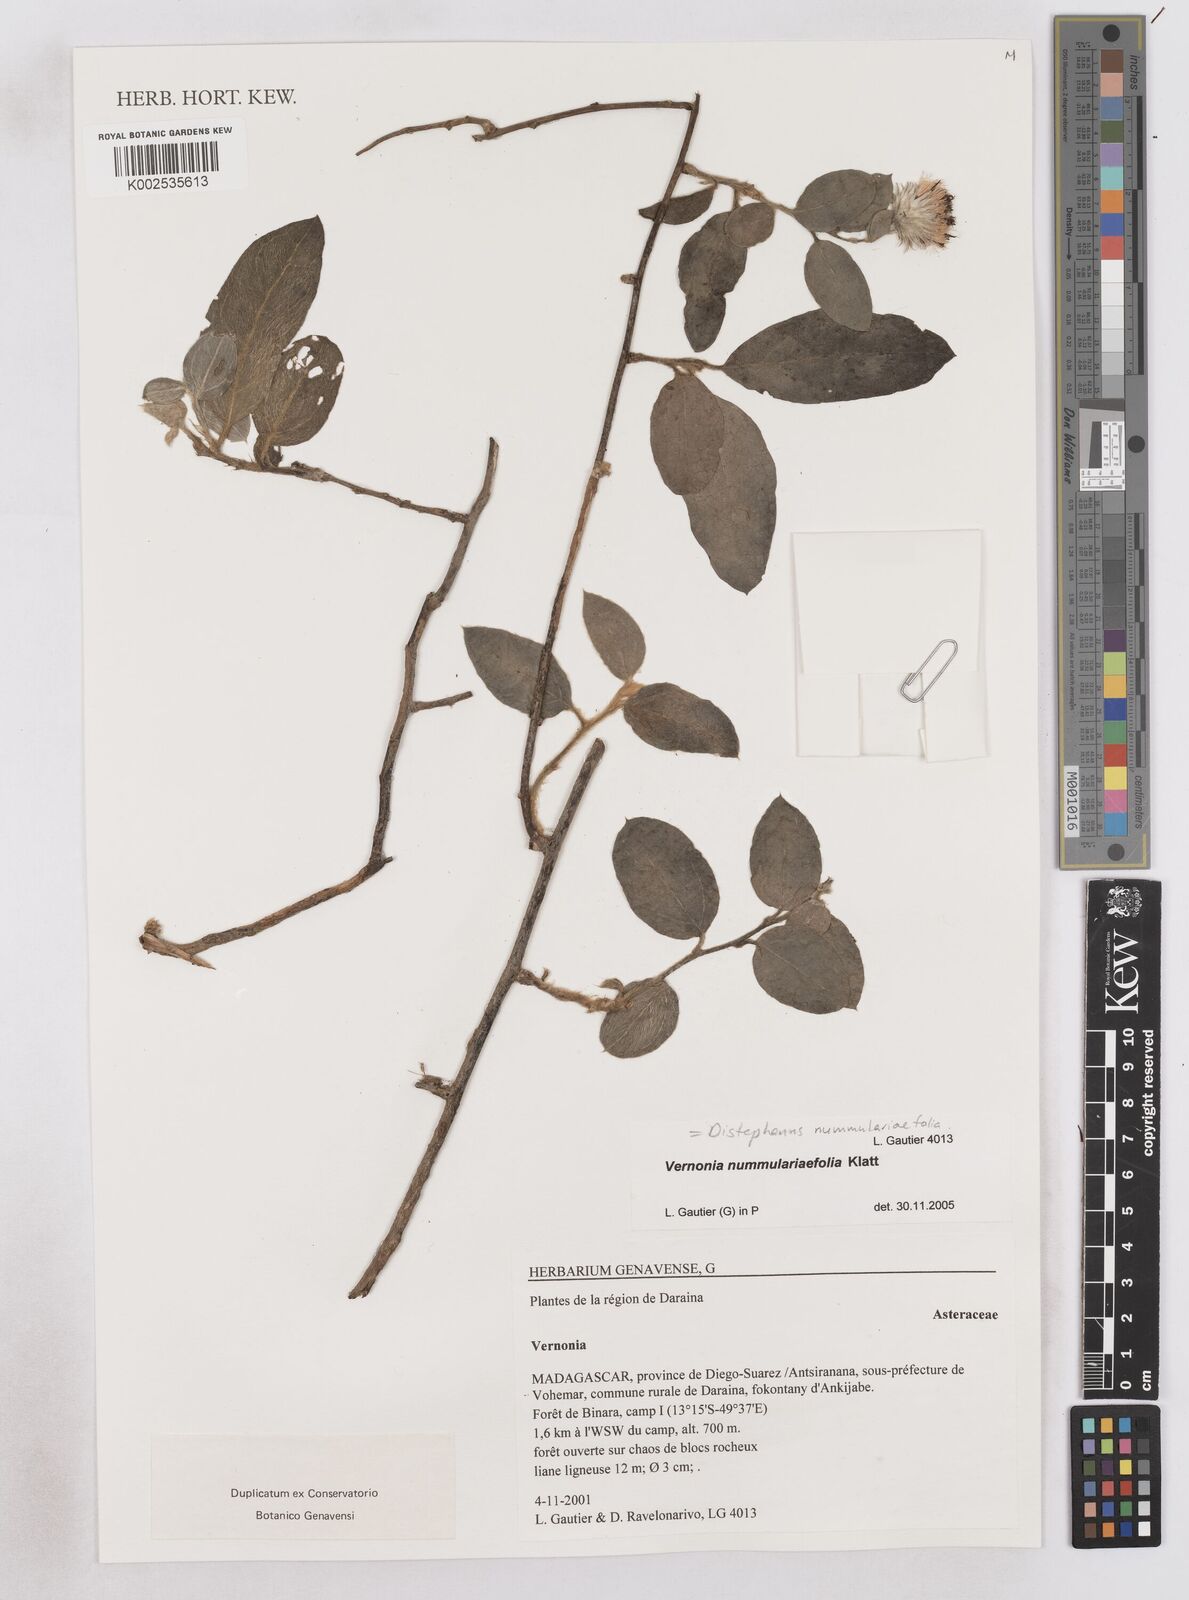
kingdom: Plantae
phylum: Tracheophyta
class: Magnoliopsida
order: Asterales
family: Asteraceae
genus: Distephanus
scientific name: Distephanus nummulariifolius
